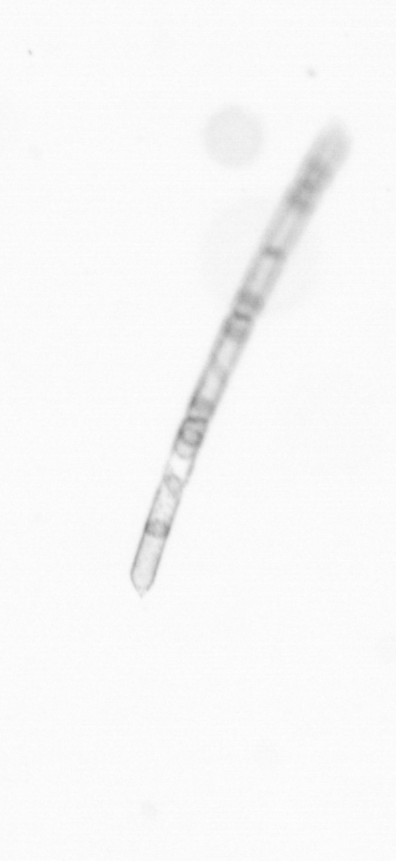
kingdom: Chromista
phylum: Ochrophyta
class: Bacillariophyceae
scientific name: Bacillariophyceae
